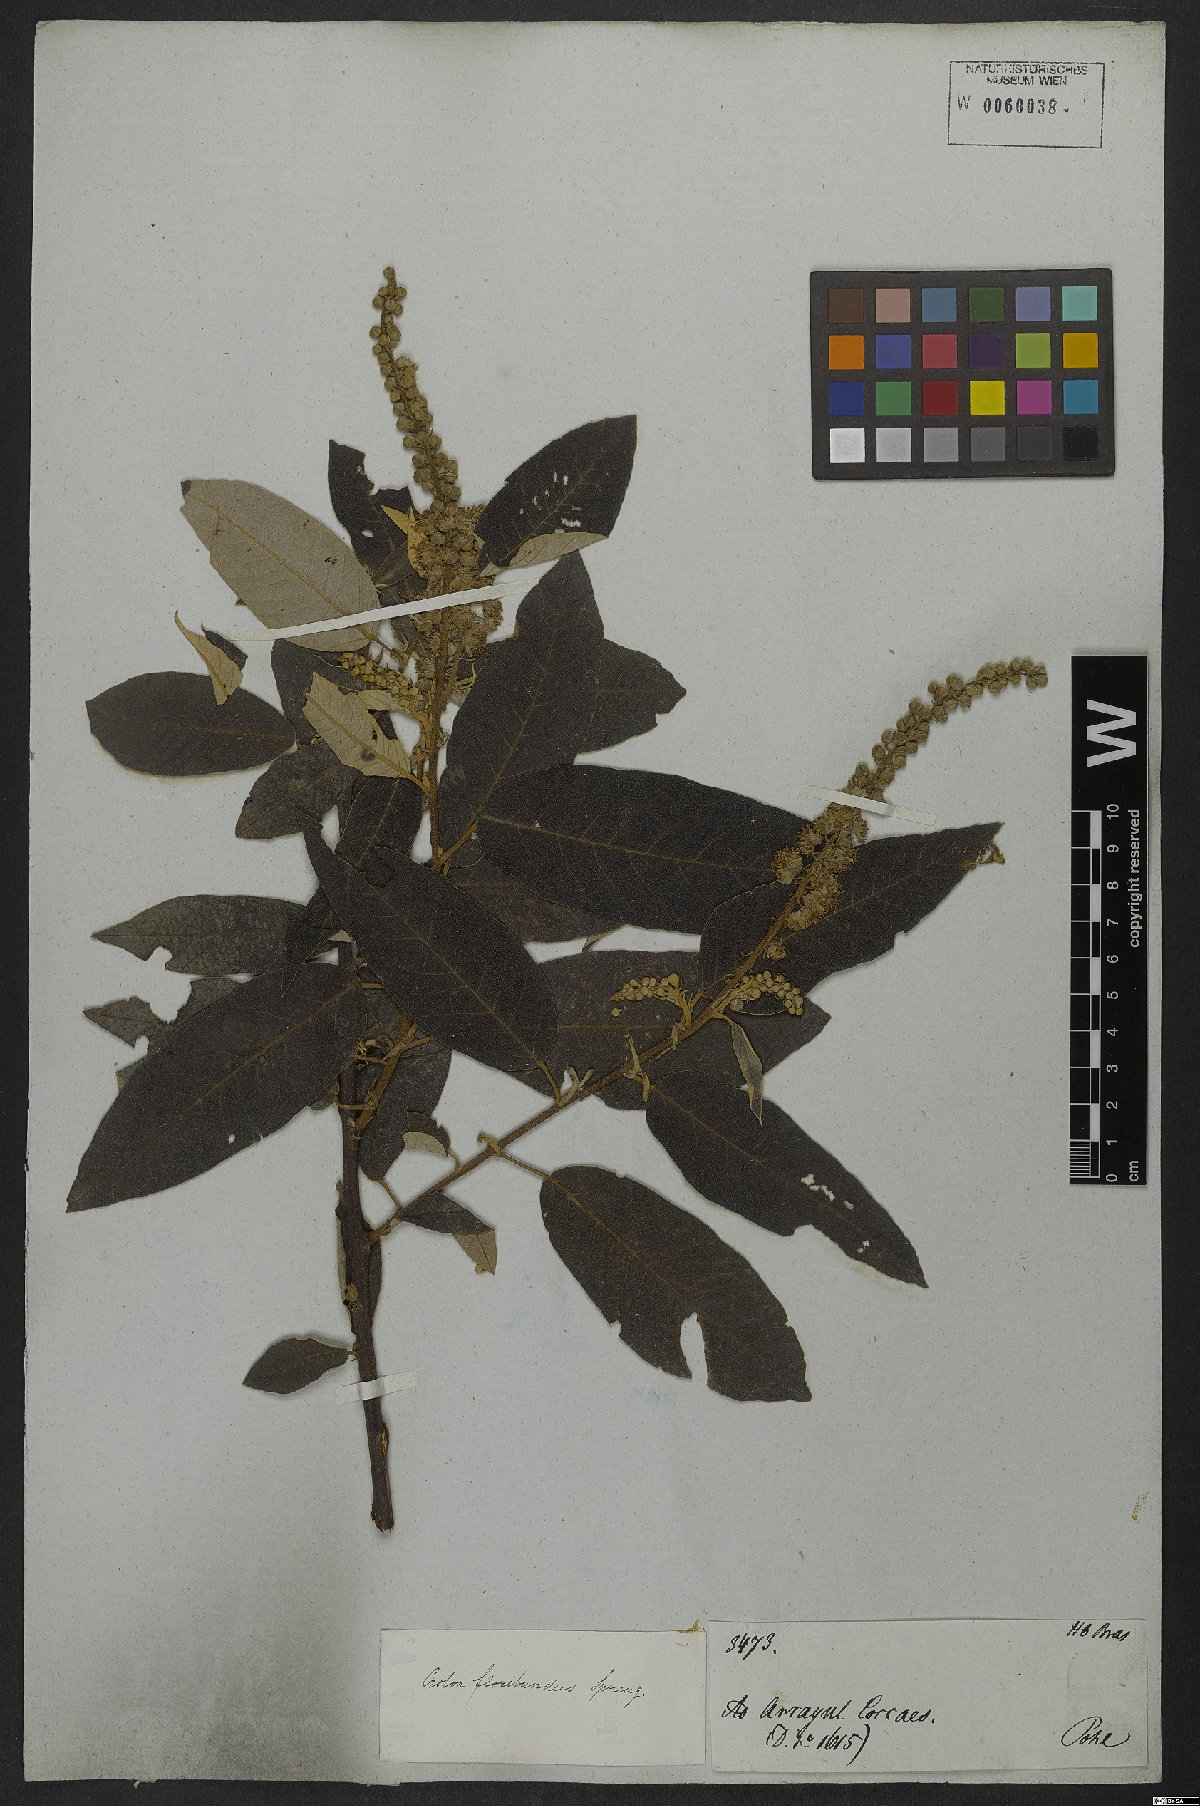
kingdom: Plantae
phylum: Tracheophyta
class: Magnoliopsida
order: Malpighiales
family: Euphorbiaceae
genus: Croton
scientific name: Croton floribundus
